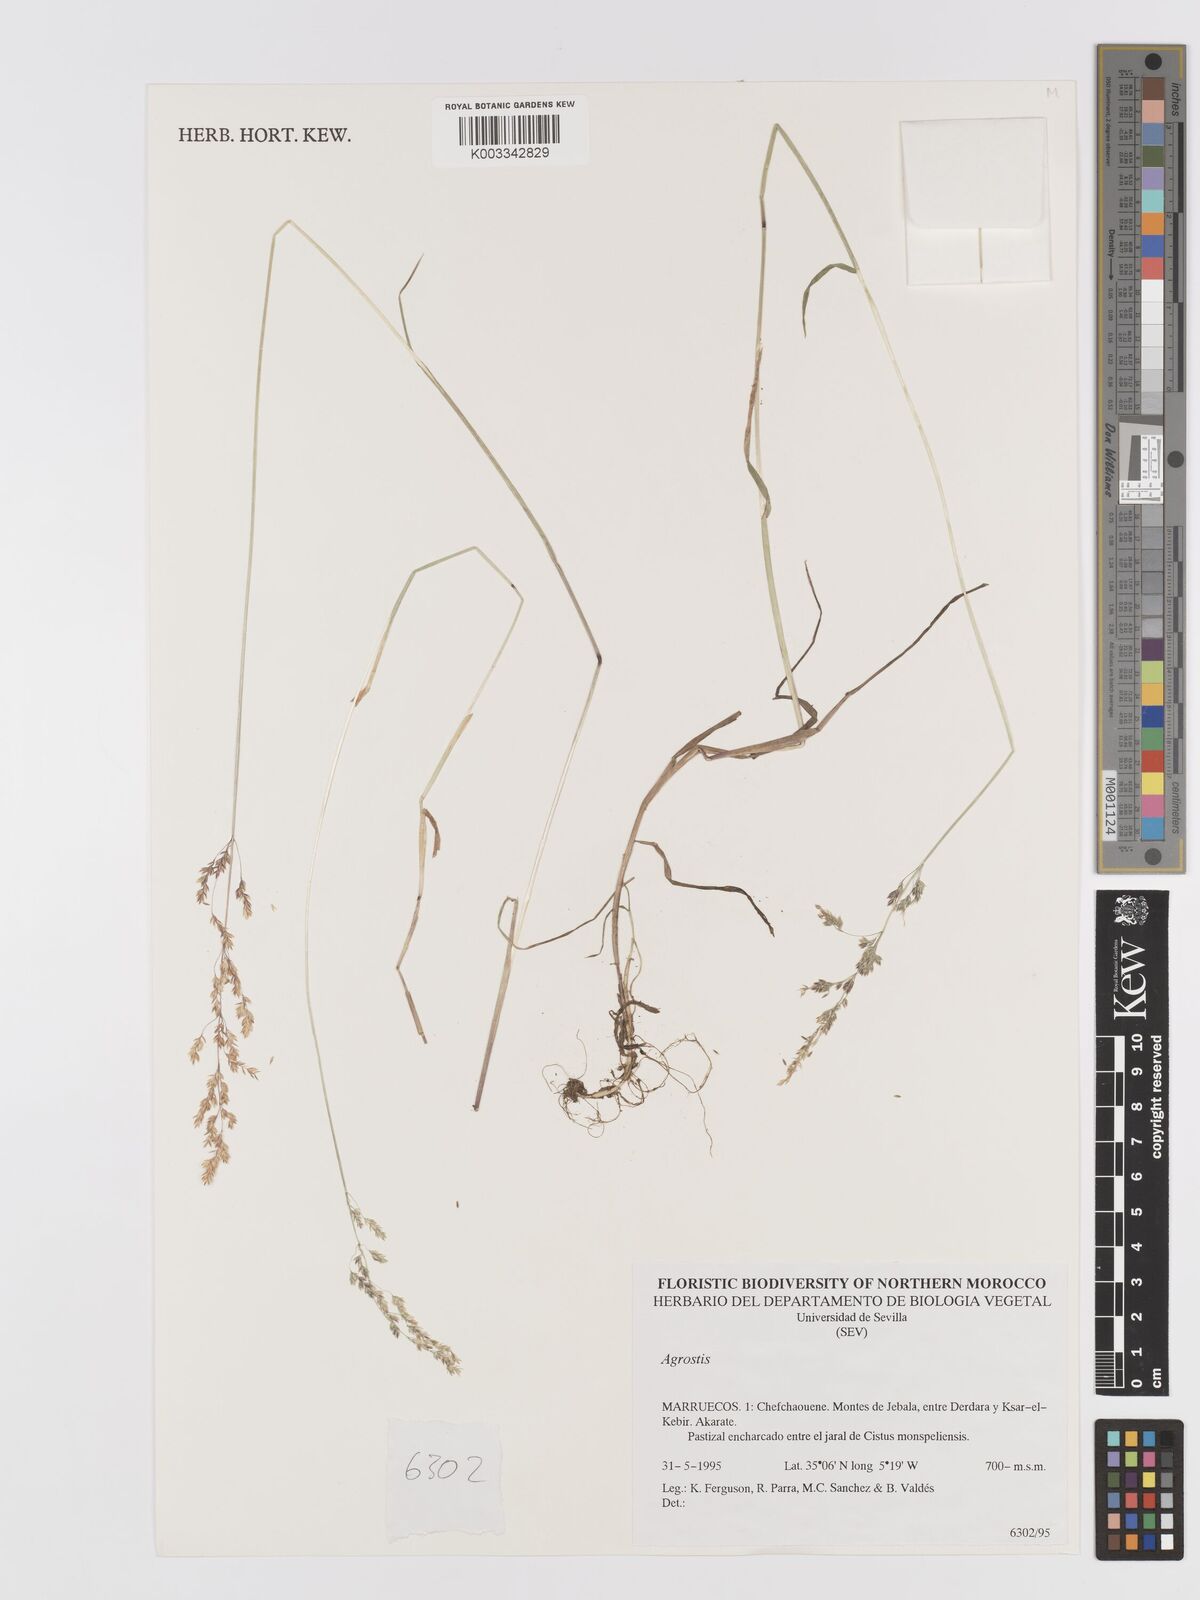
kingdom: Plantae
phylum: Tracheophyta
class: Liliopsida
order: Poales
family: Poaceae
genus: Agrostis
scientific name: Agrostis
